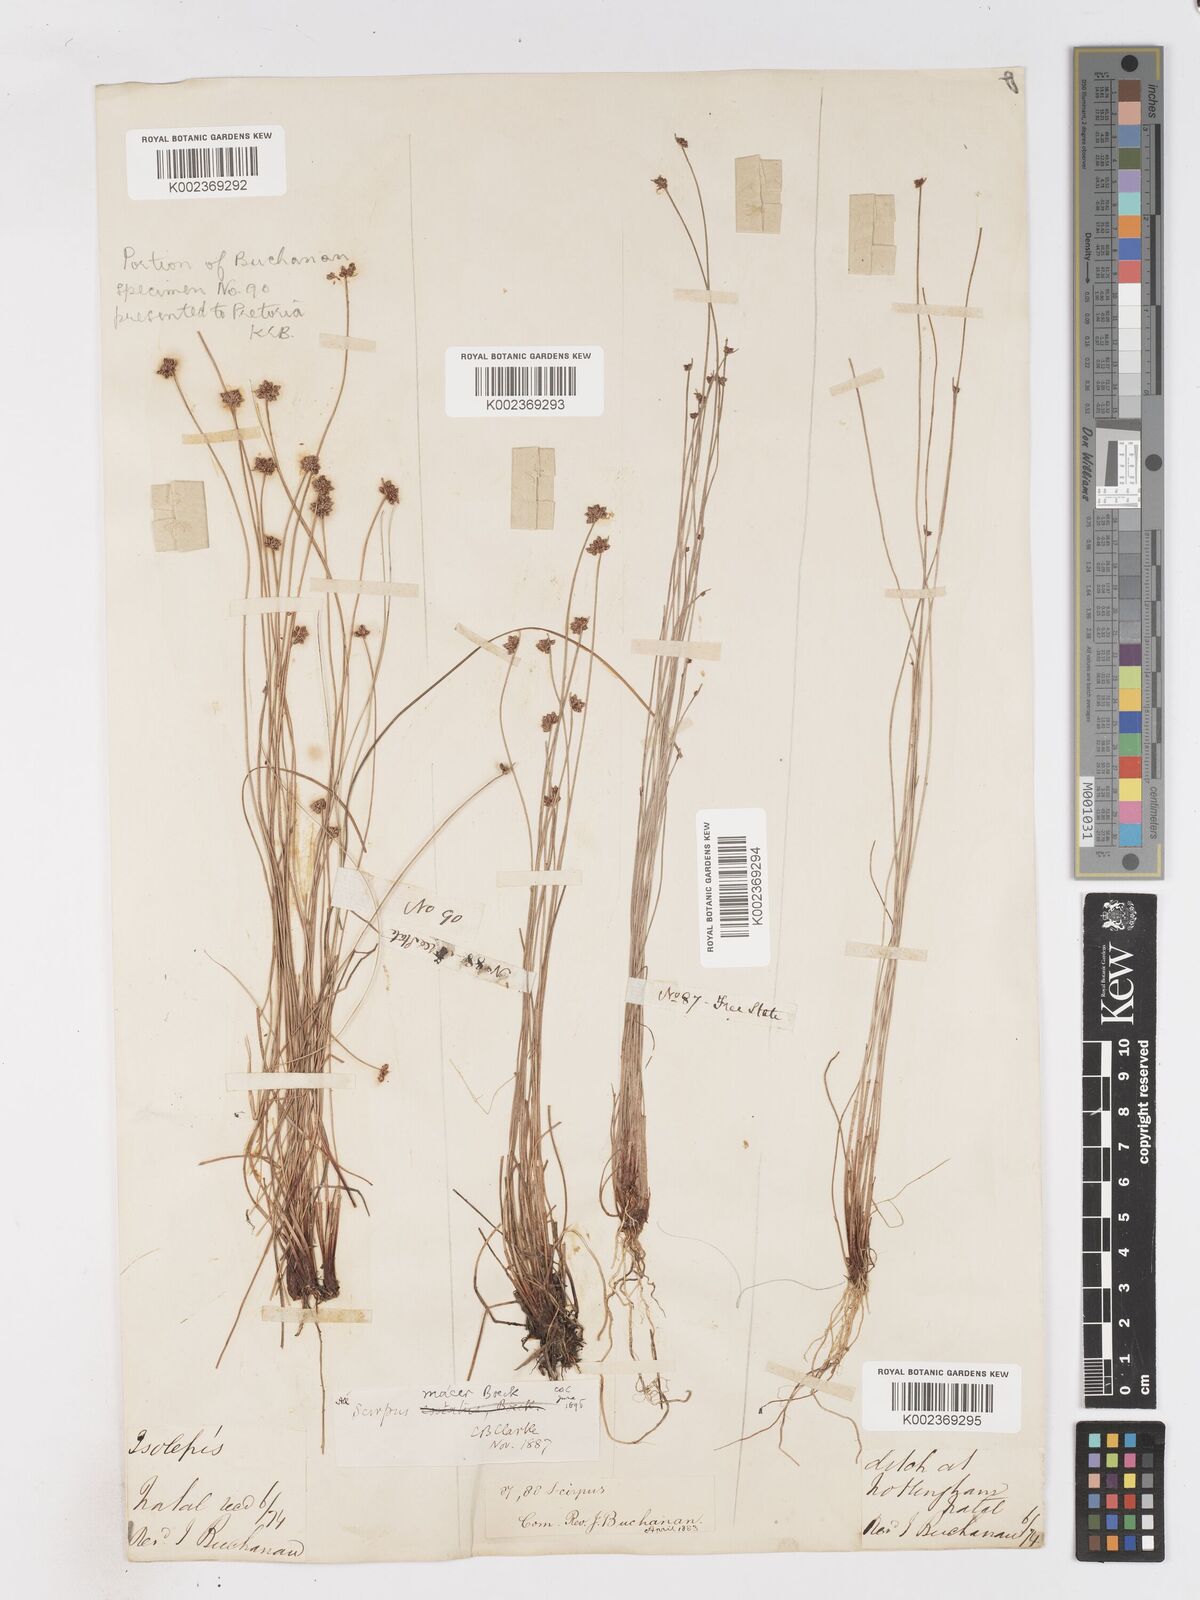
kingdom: Plantae
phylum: Tracheophyta
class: Liliopsida
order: Poales
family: Cyperaceae
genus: Isolepis
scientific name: Isolepis costata
